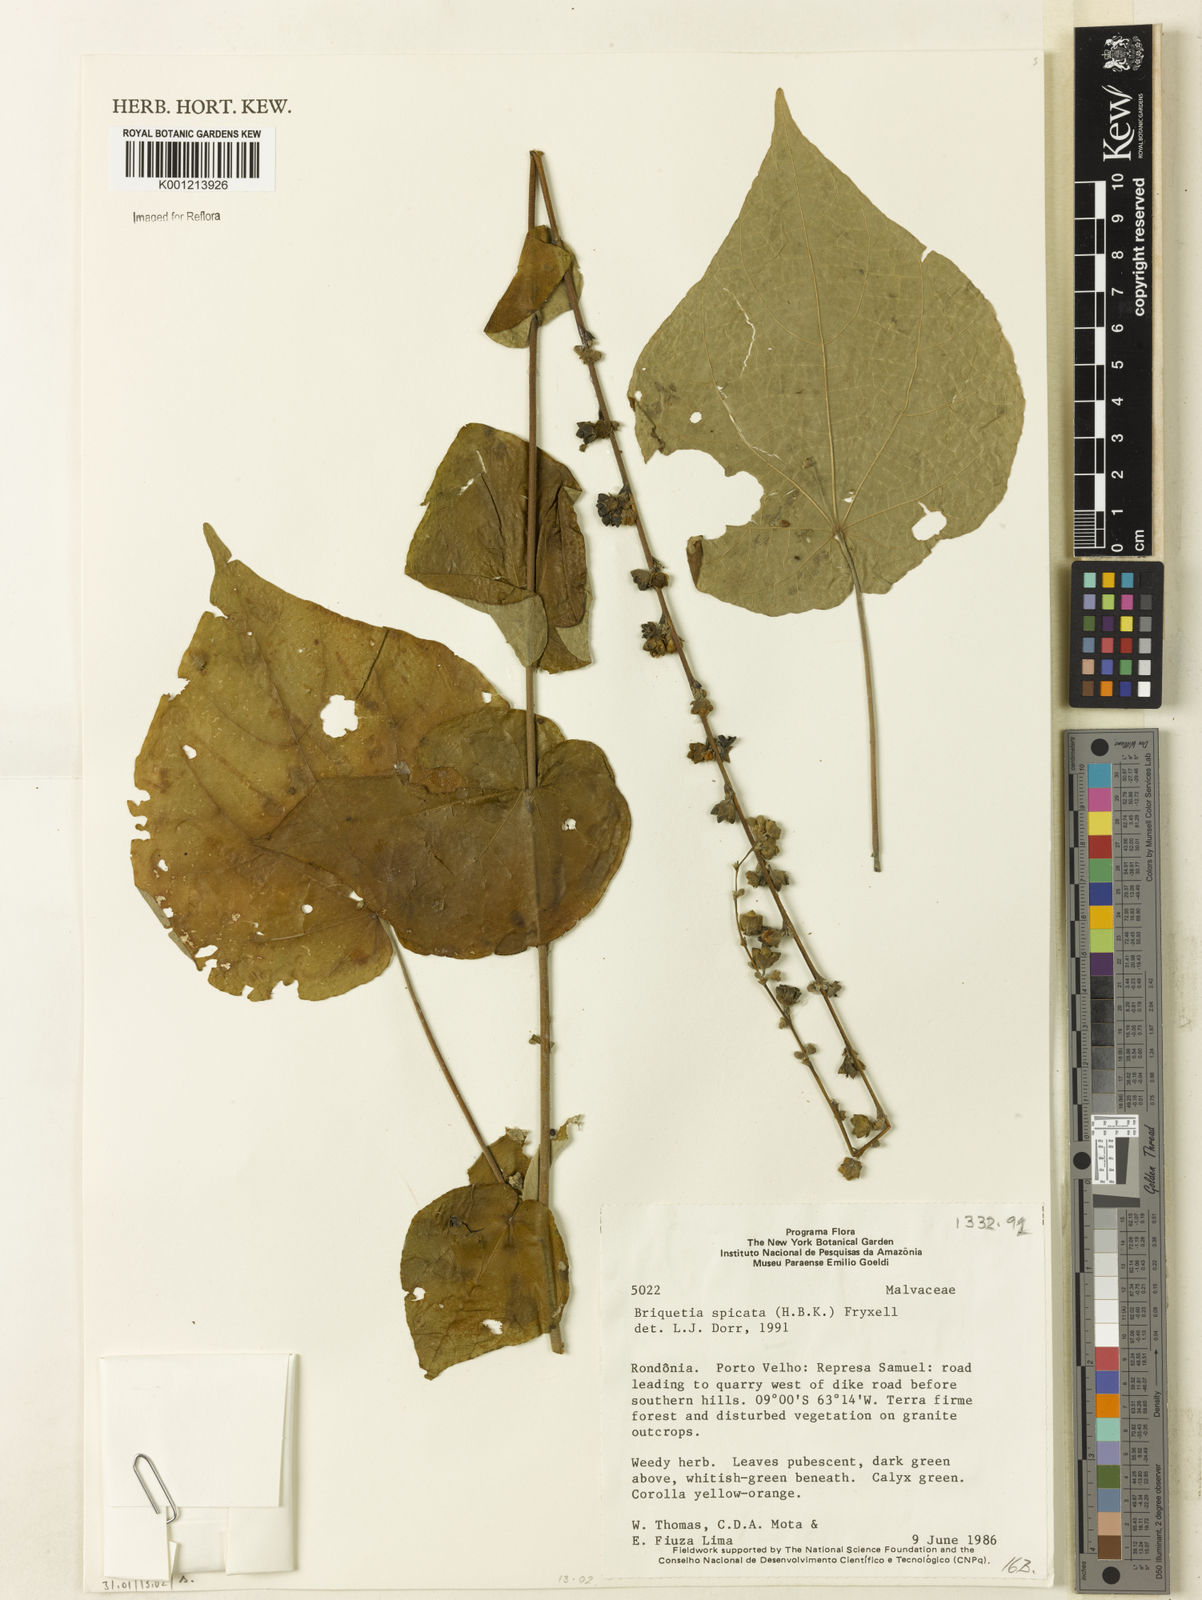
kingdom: Plantae
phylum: Tracheophyta
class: Magnoliopsida
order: Malvales
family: Malvaceae
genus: Allobriquetia
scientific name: Allobriquetia spicata
